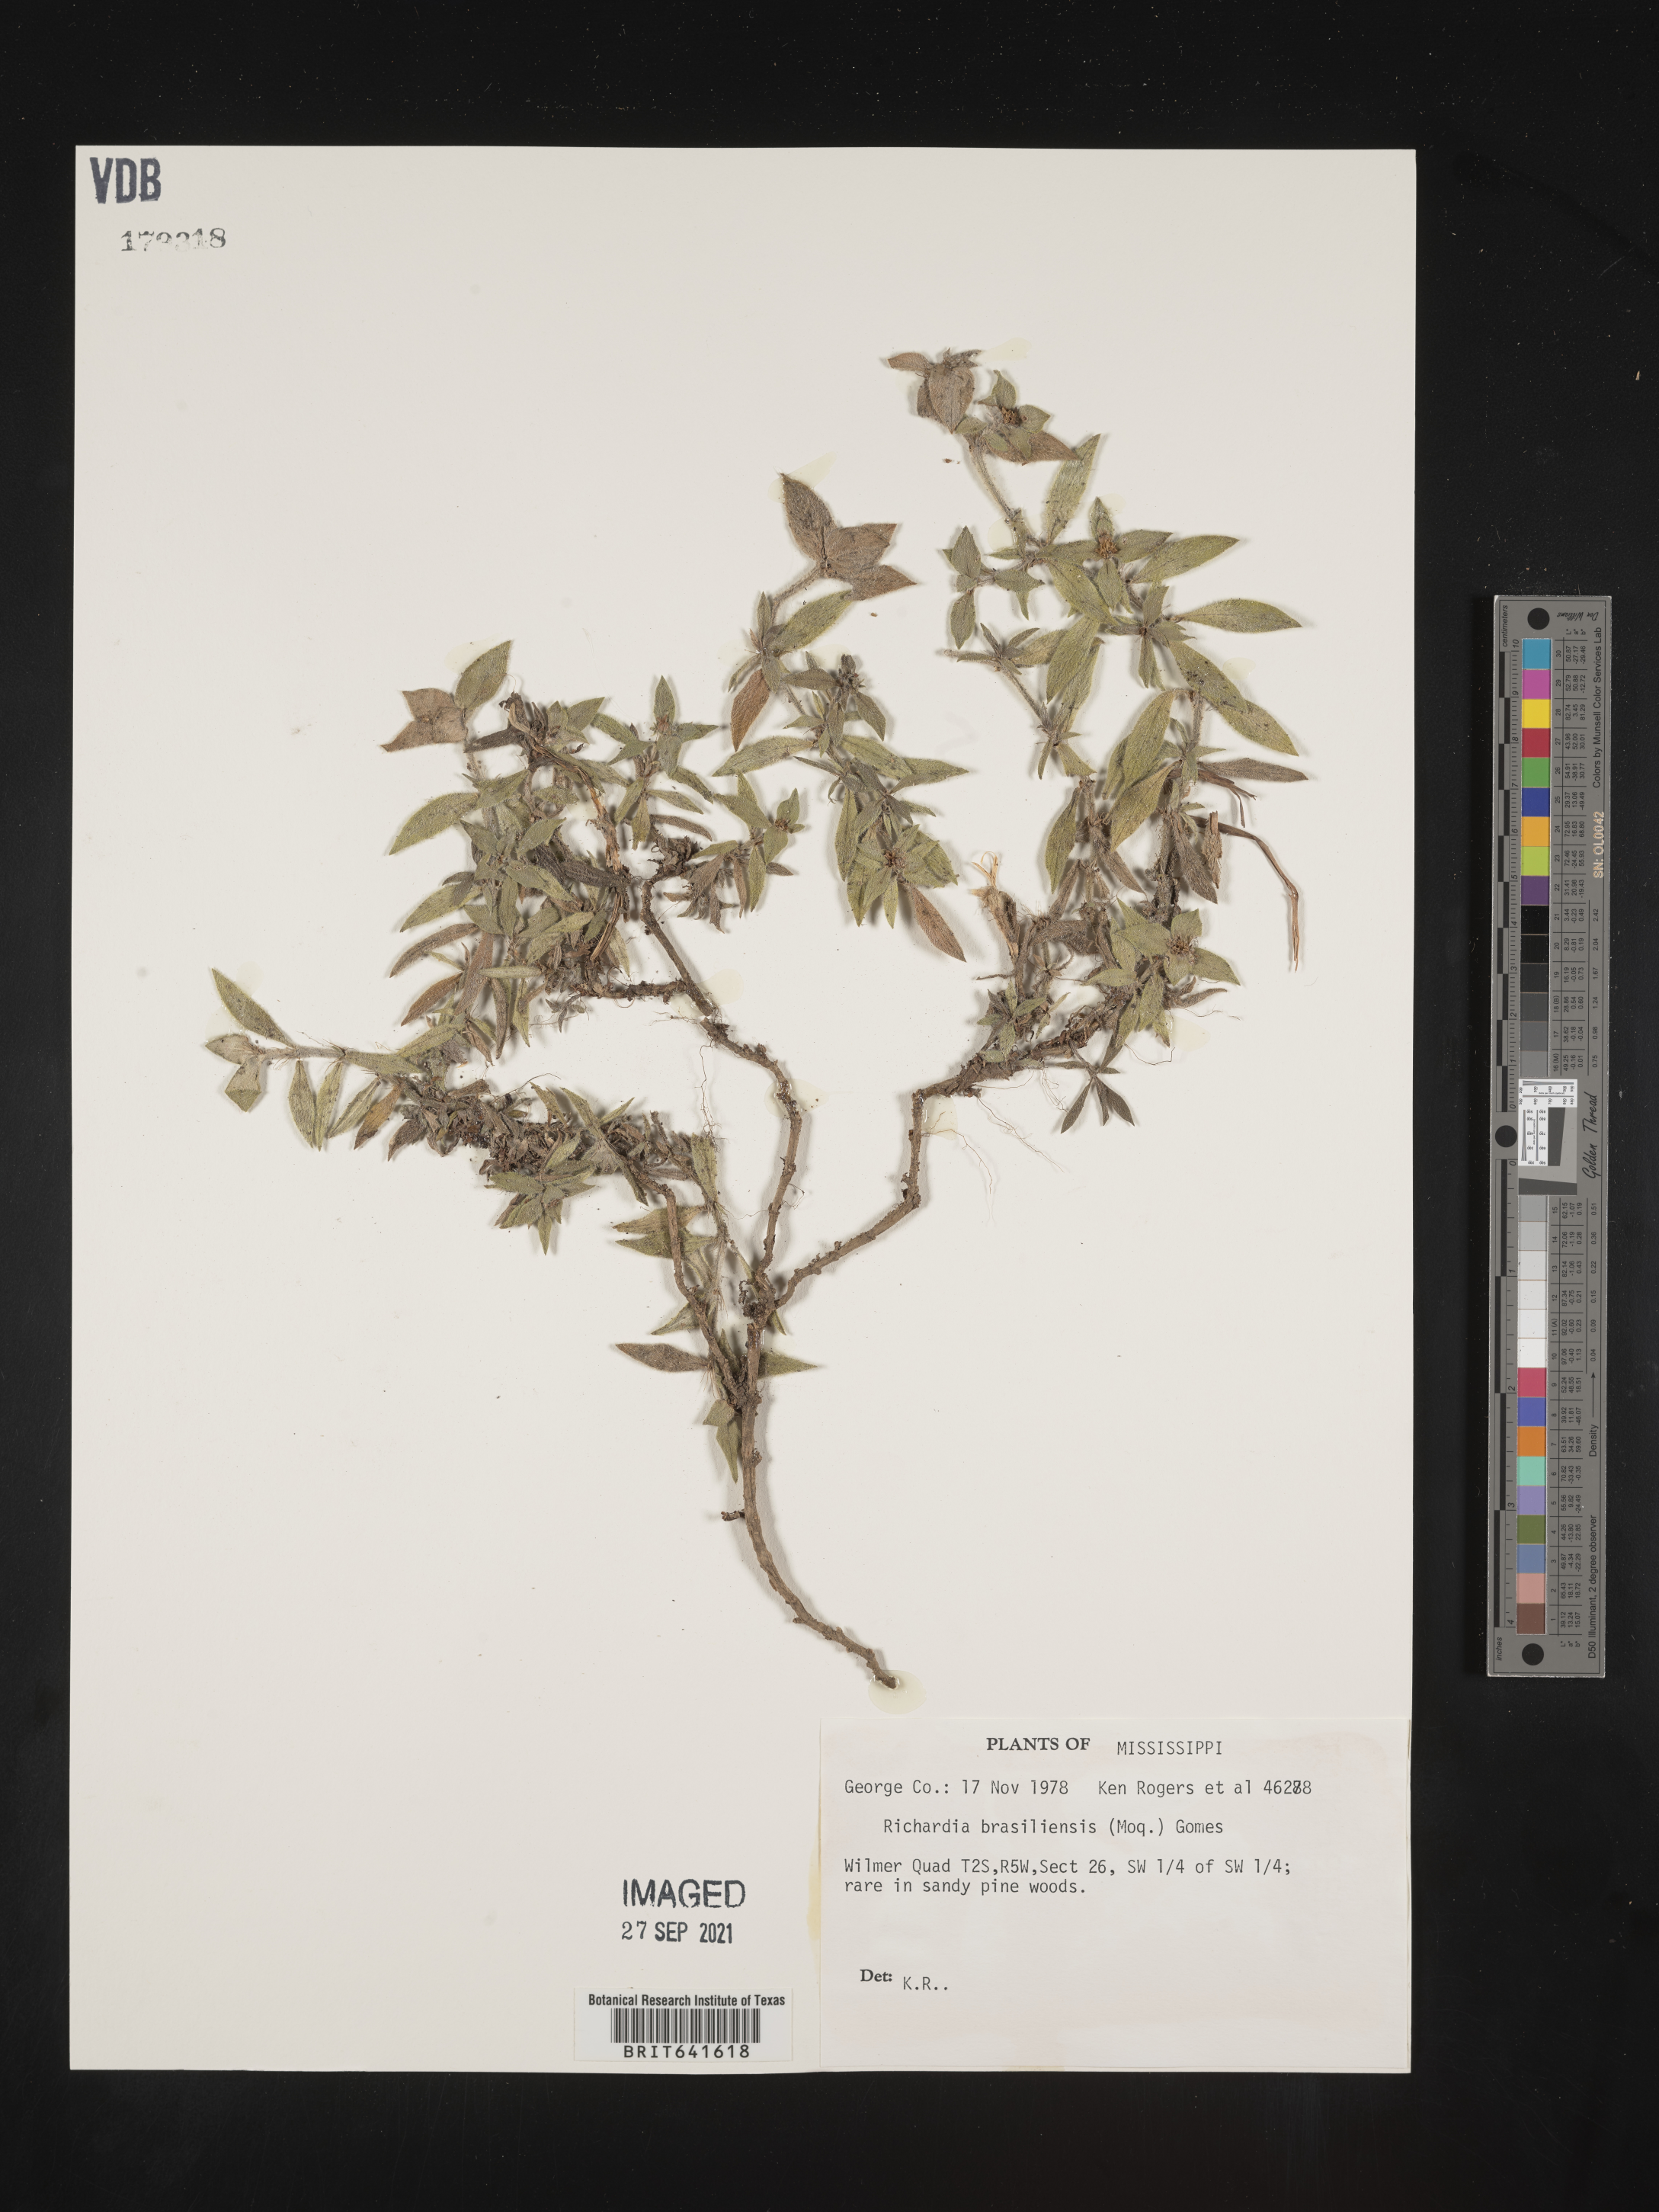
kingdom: Plantae
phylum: Tracheophyta
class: Magnoliopsida
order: Gentianales
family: Rubiaceae
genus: Richardia
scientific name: Richardia brasiliensis
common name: Tropical mexican clover
